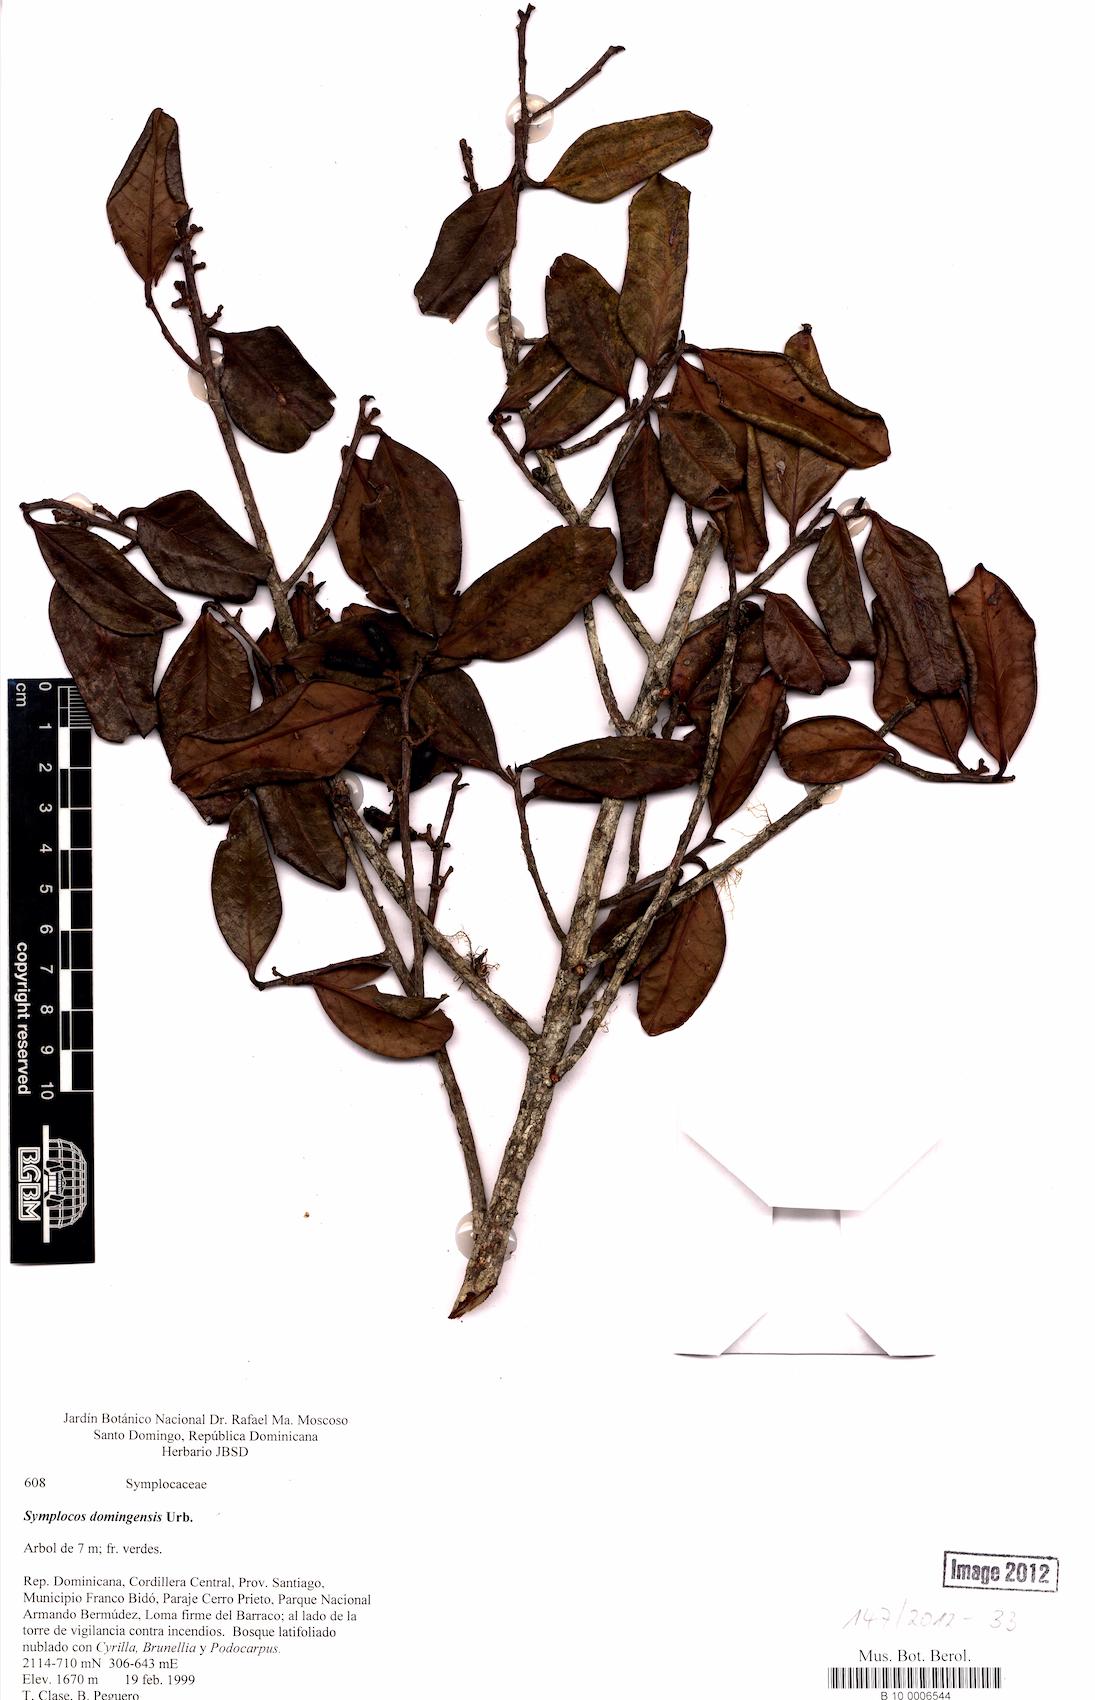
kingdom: Plantae
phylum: Tracheophyta
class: Magnoliopsida
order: Ericales
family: Symplocaceae
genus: Symplocos
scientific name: Symplocos domingensis
